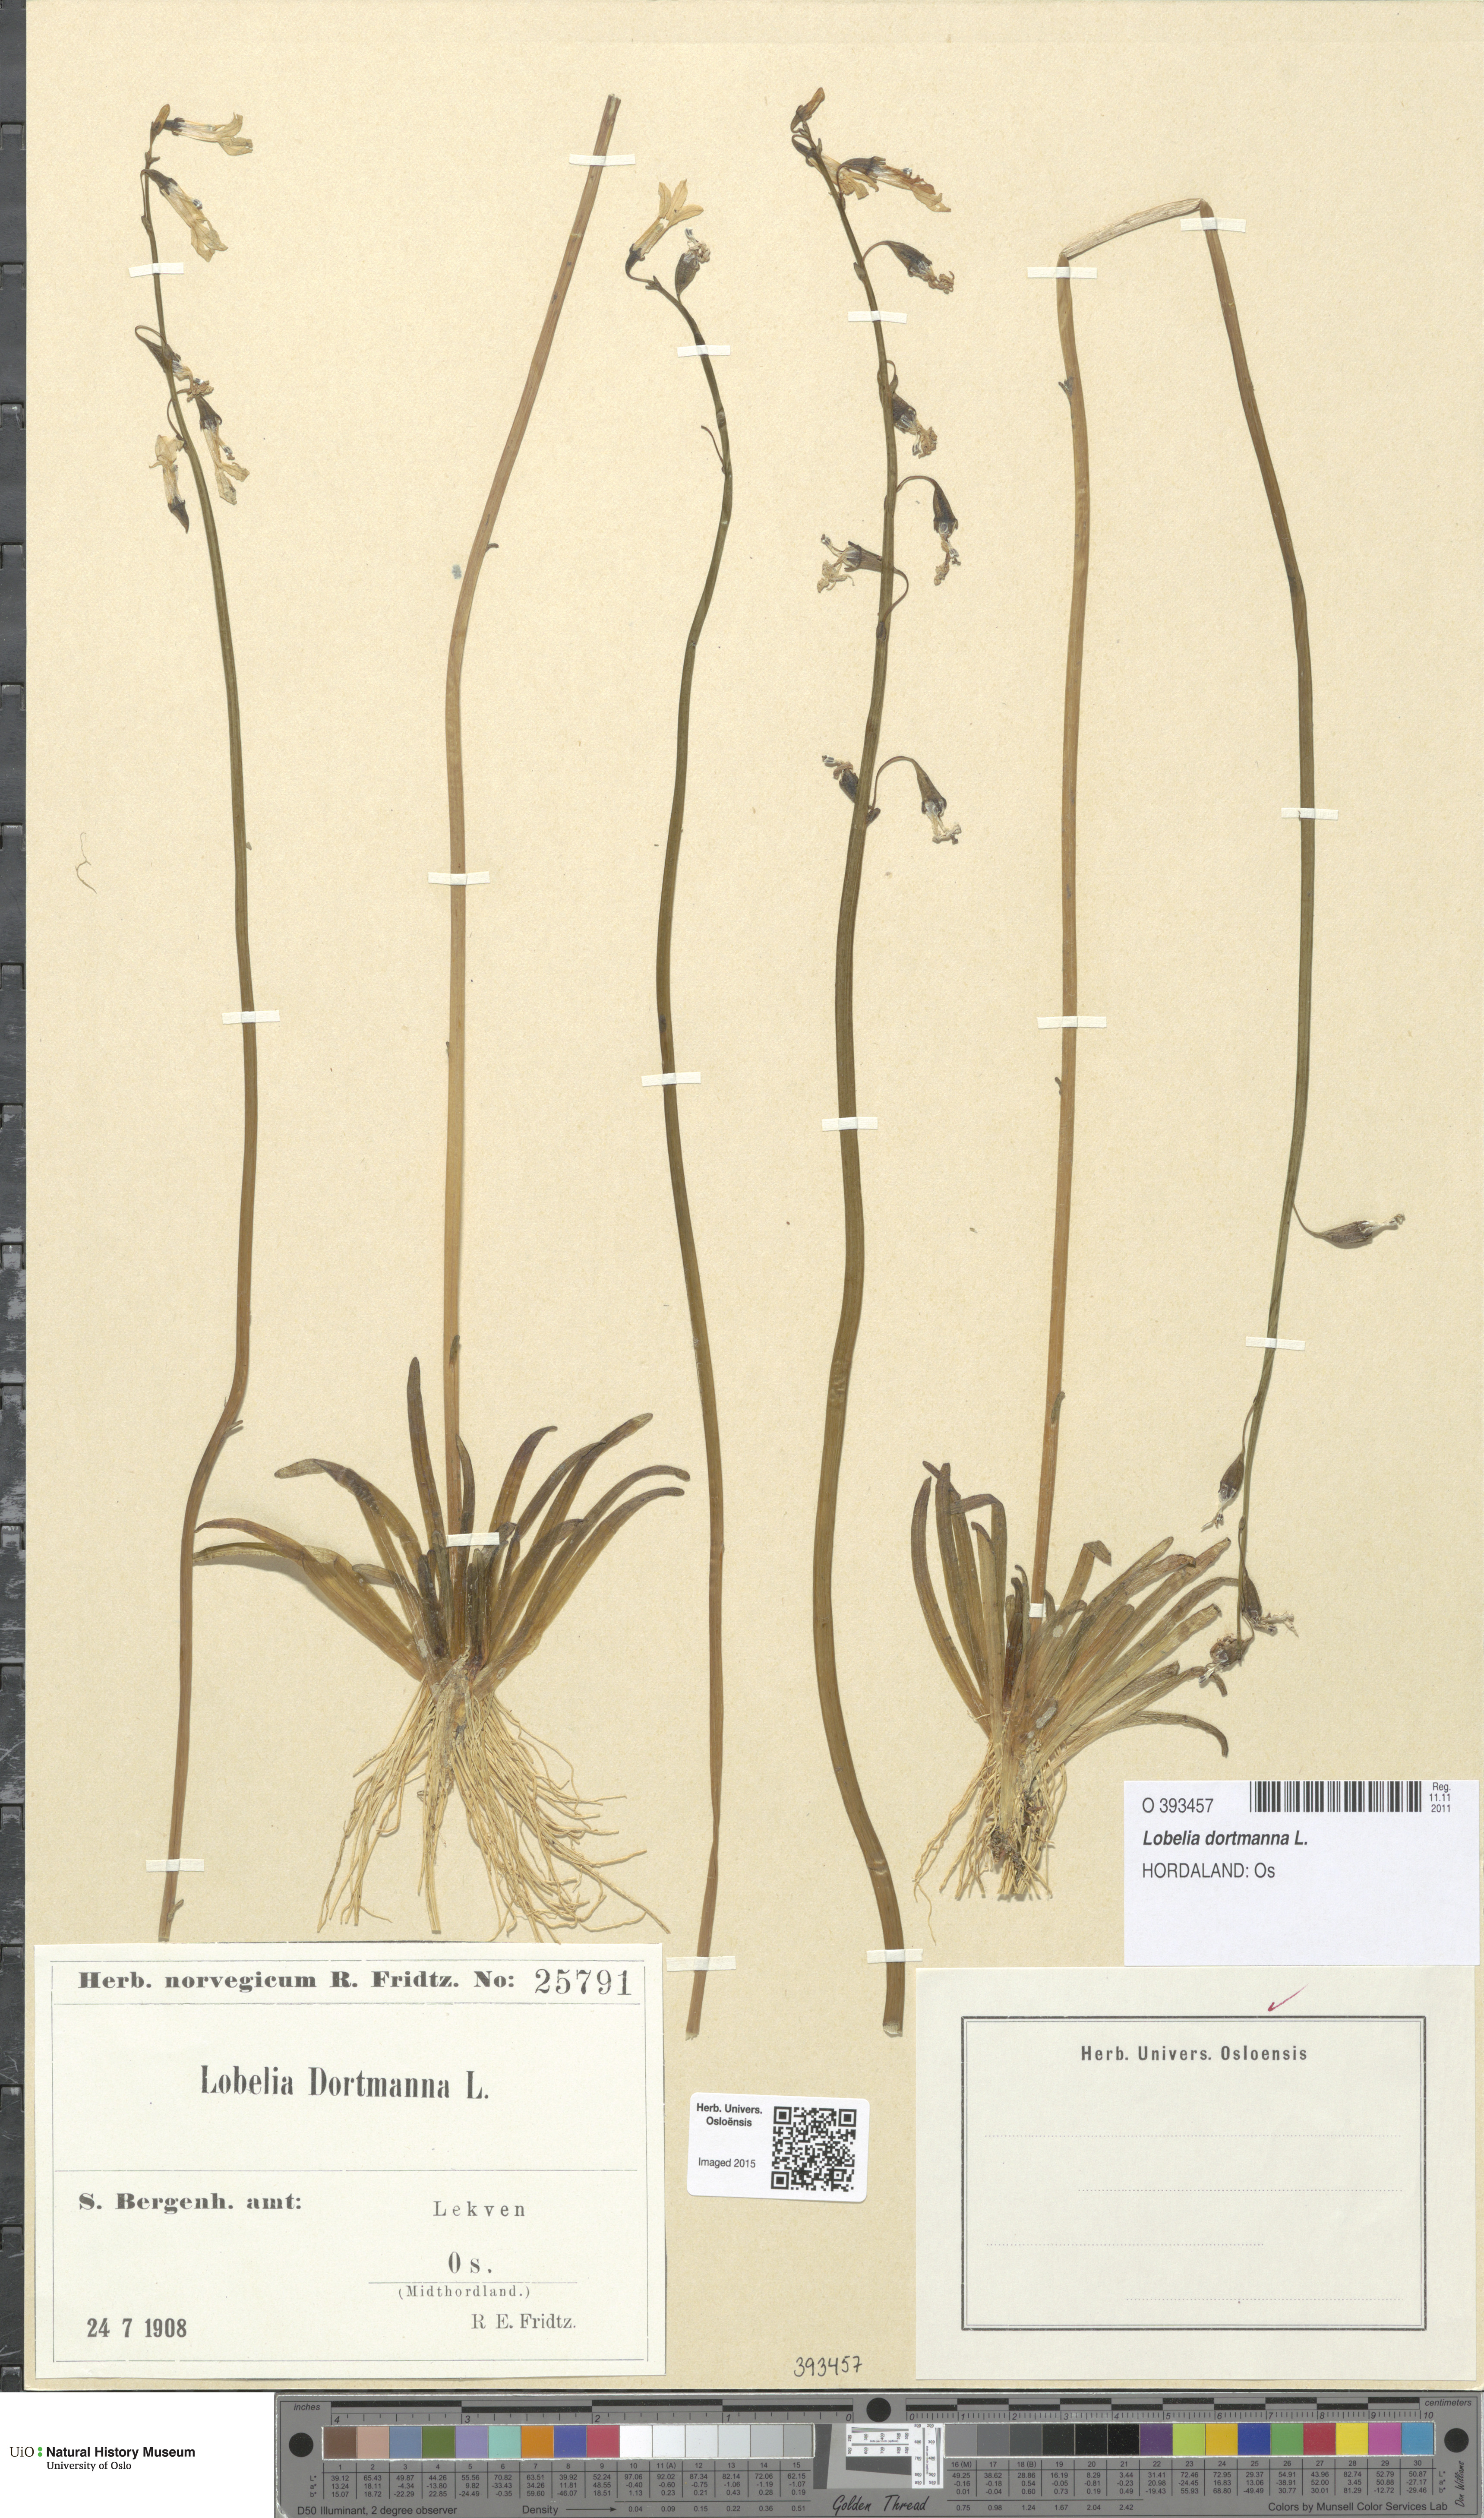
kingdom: Plantae
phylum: Tracheophyta
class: Magnoliopsida
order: Asterales
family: Campanulaceae
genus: Lobelia
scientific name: Lobelia dortmanna
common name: Water lobelia
